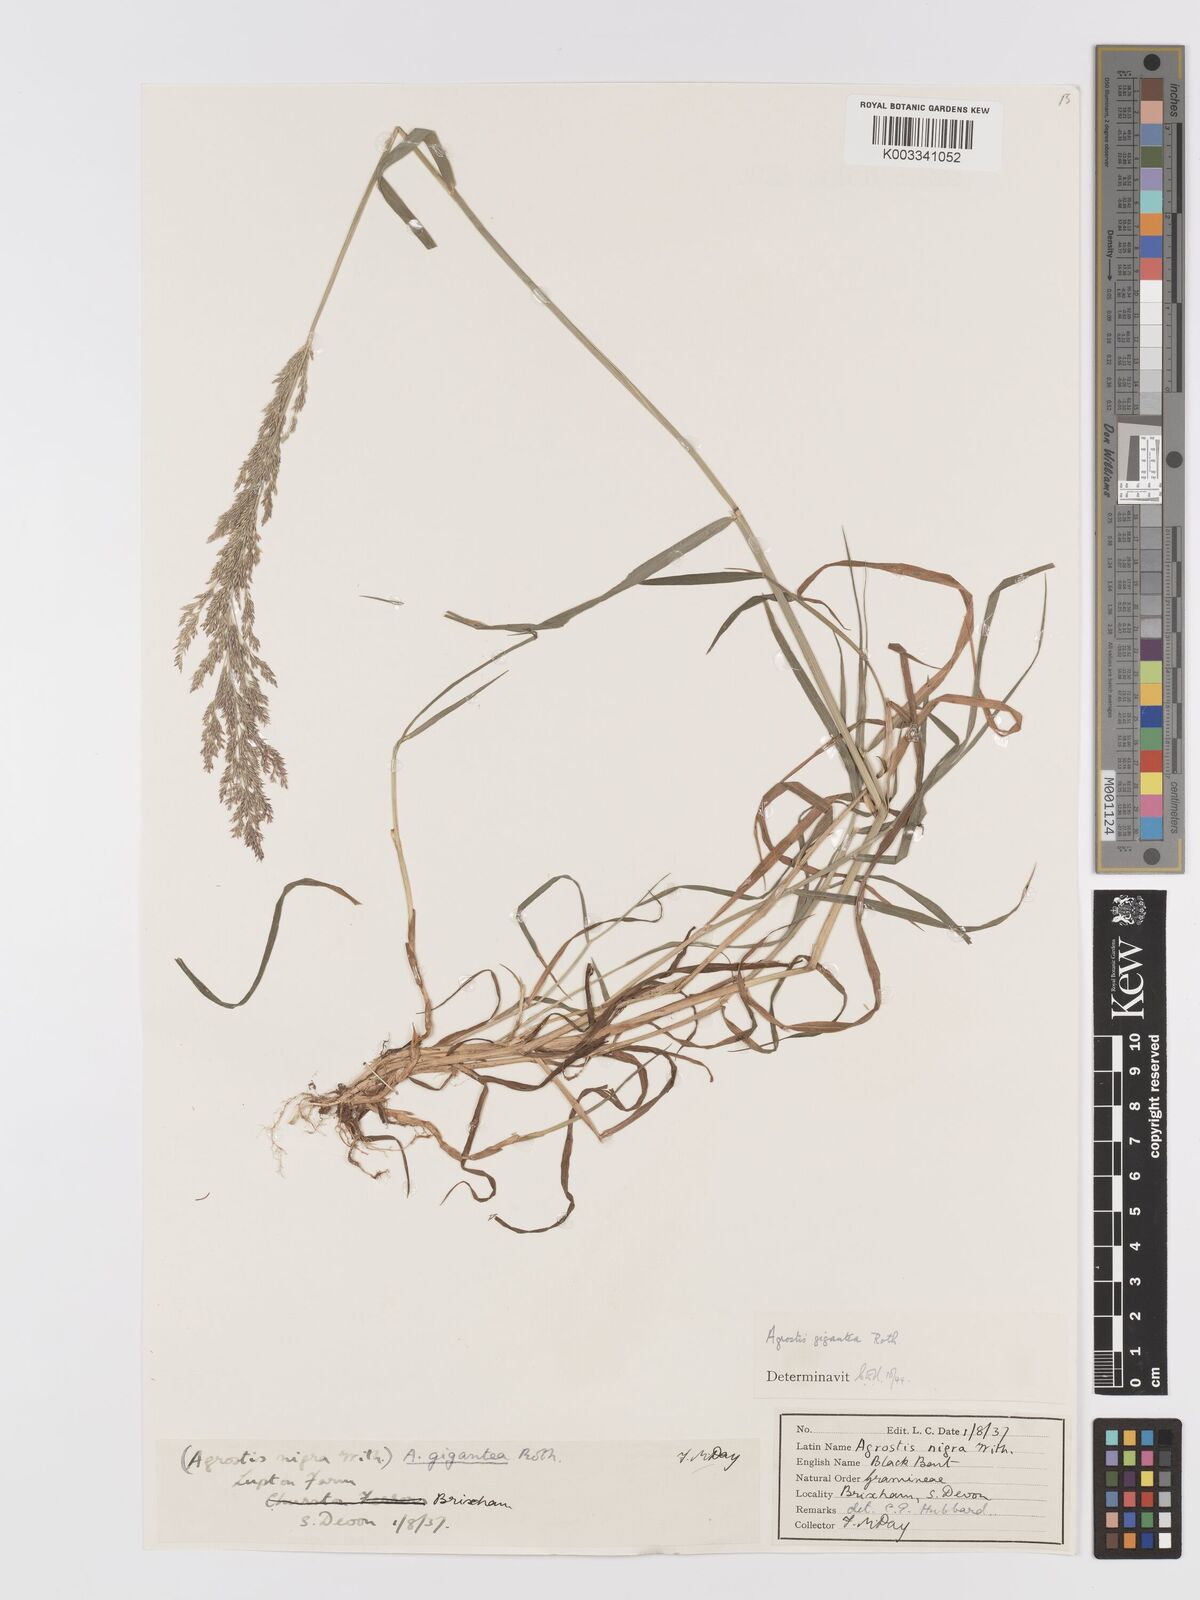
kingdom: Plantae
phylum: Tracheophyta
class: Liliopsida
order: Poales
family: Poaceae
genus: Agrostis
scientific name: Agrostis gigantea
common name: Black bent
